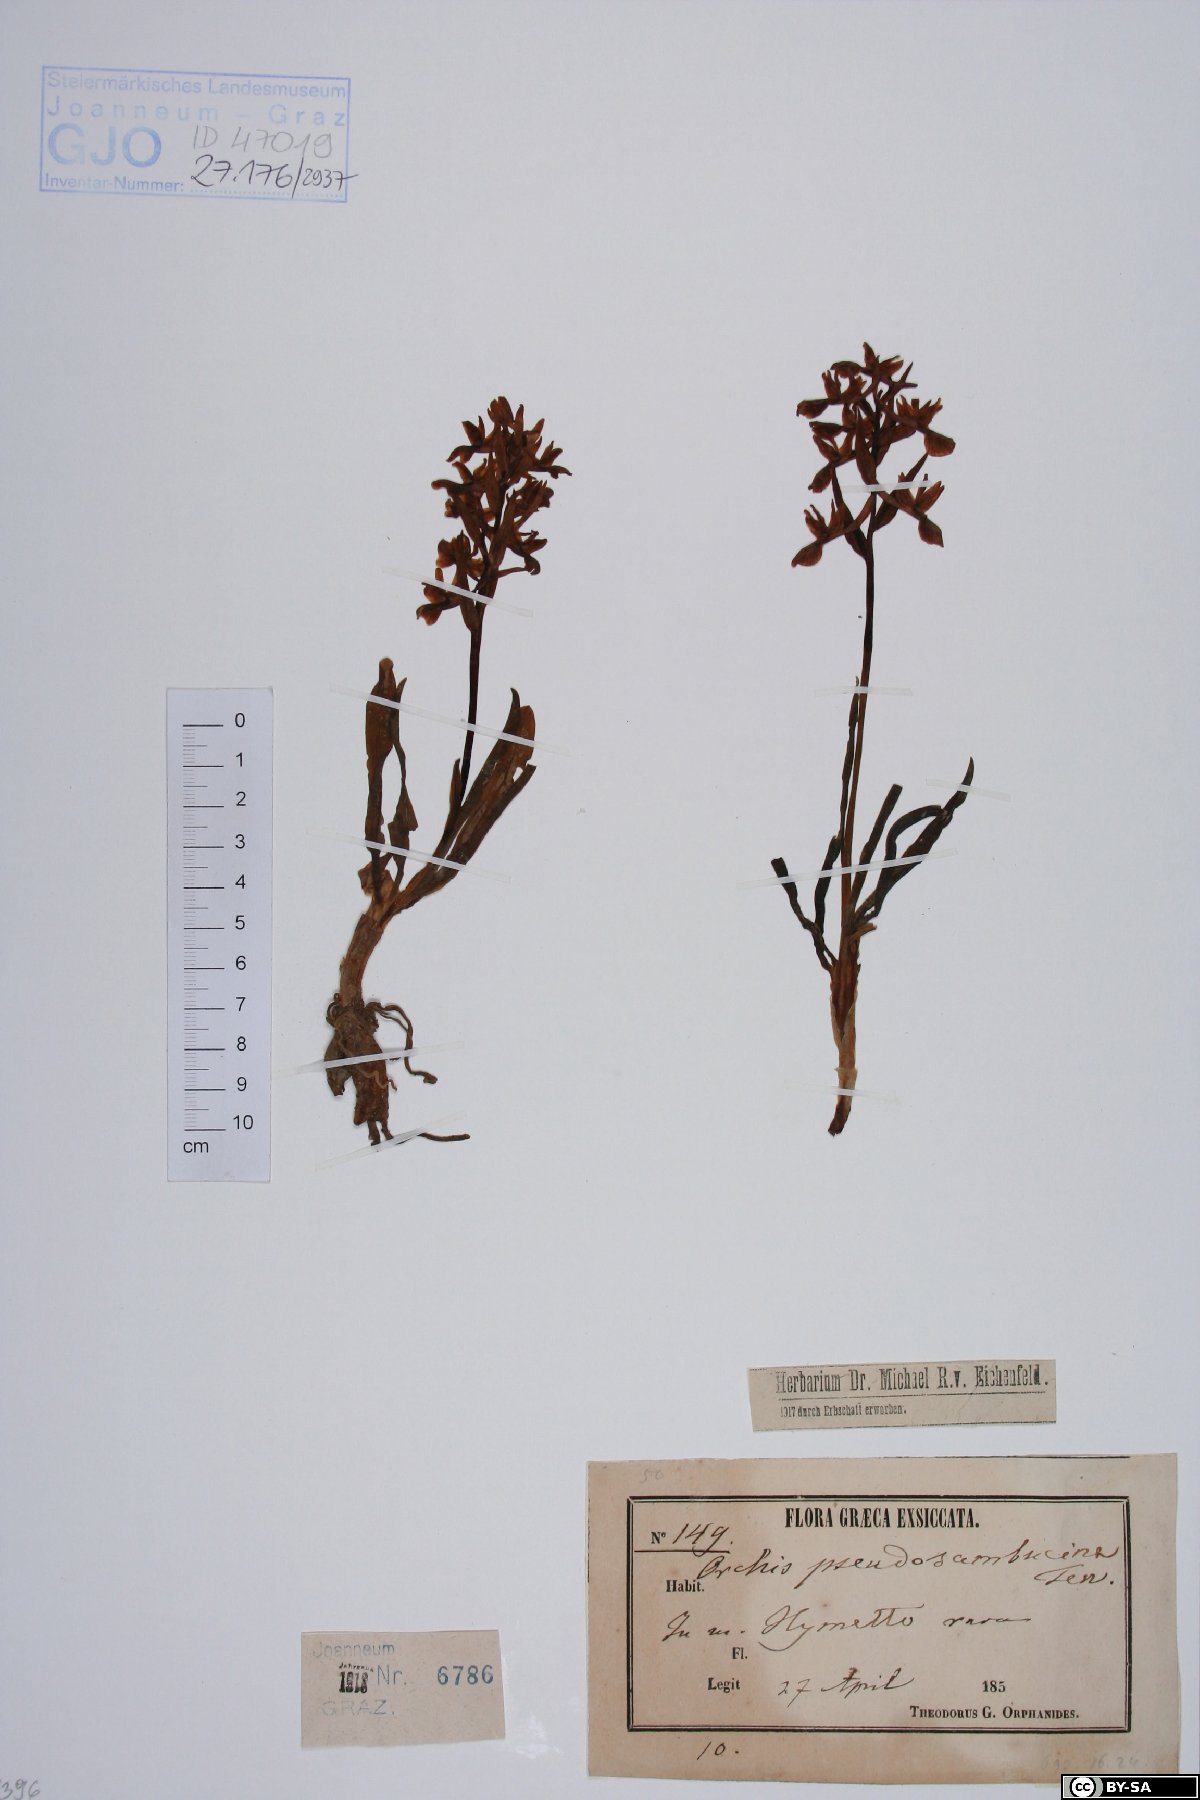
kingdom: Plantae
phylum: Tracheophyta
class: Liliopsida
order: Asparagales
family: Orchidaceae
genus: Dactylorhiza
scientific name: Dactylorhiza romana
